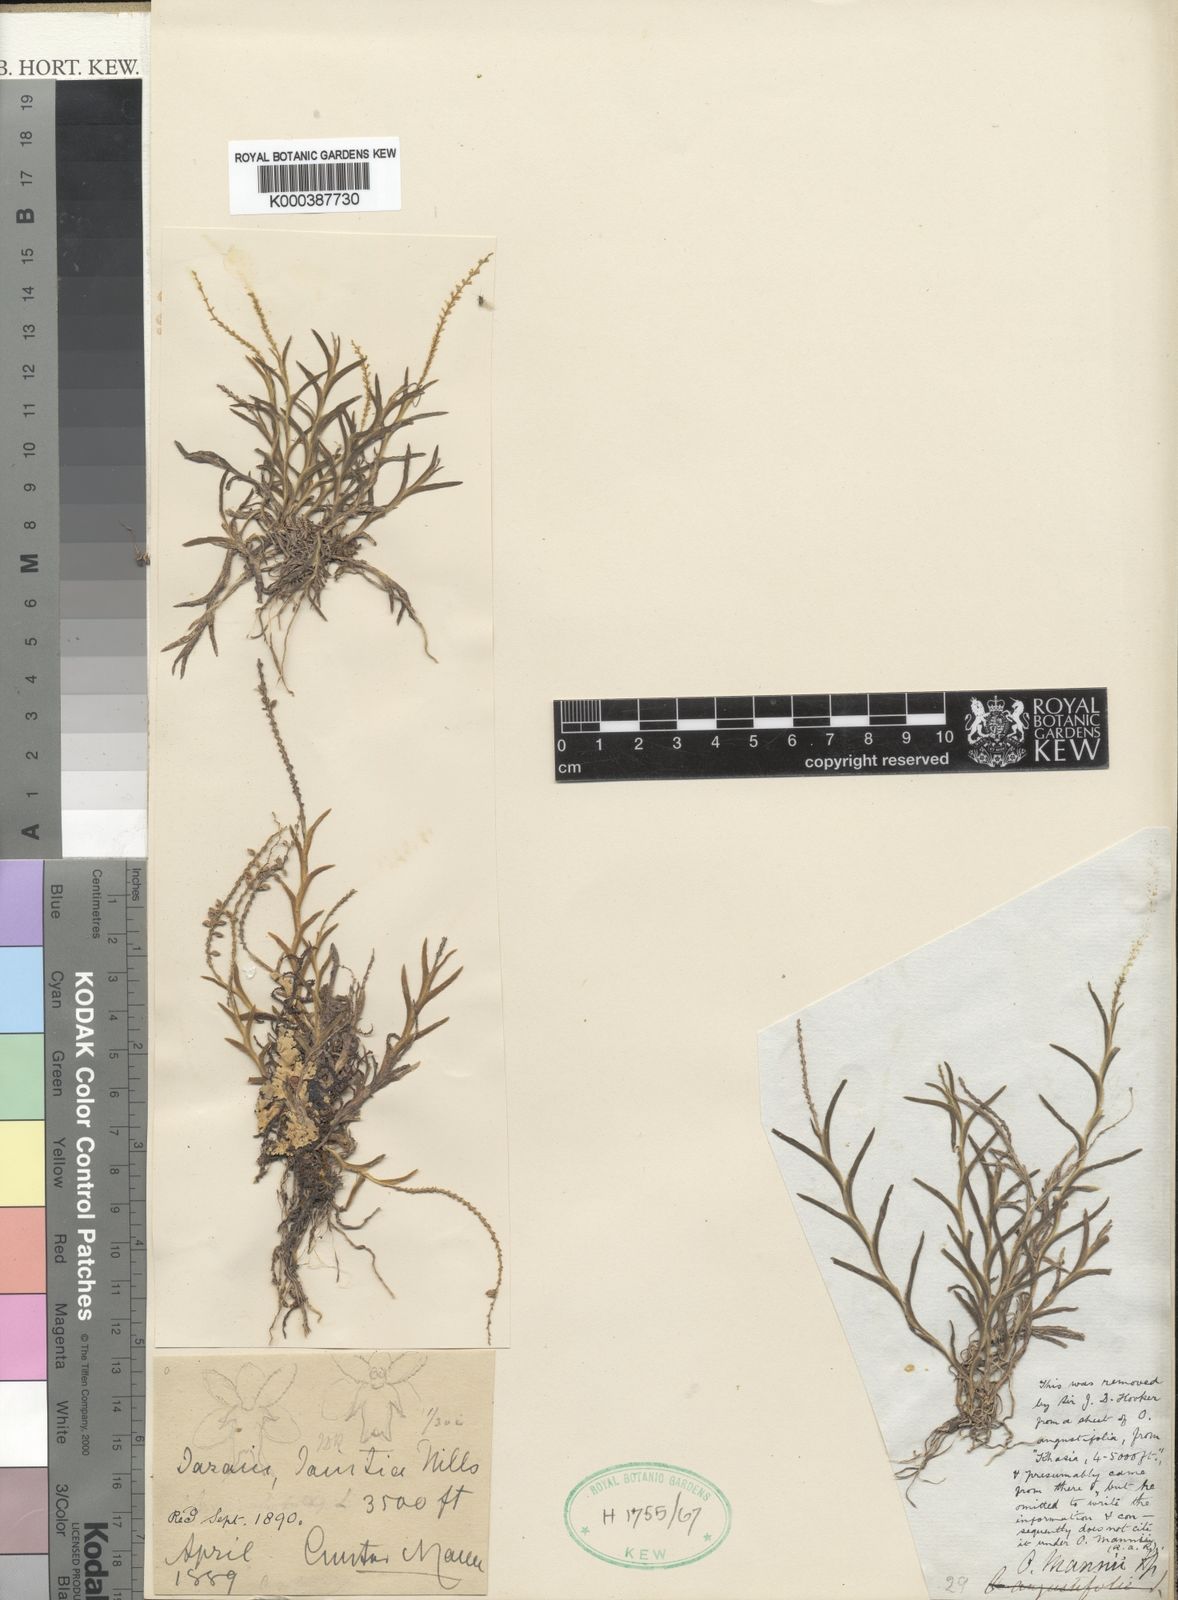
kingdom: Plantae
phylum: Tracheophyta
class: Liliopsida
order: Asparagales
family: Orchidaceae
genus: Oberonia
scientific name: Oberonia anthropophora
